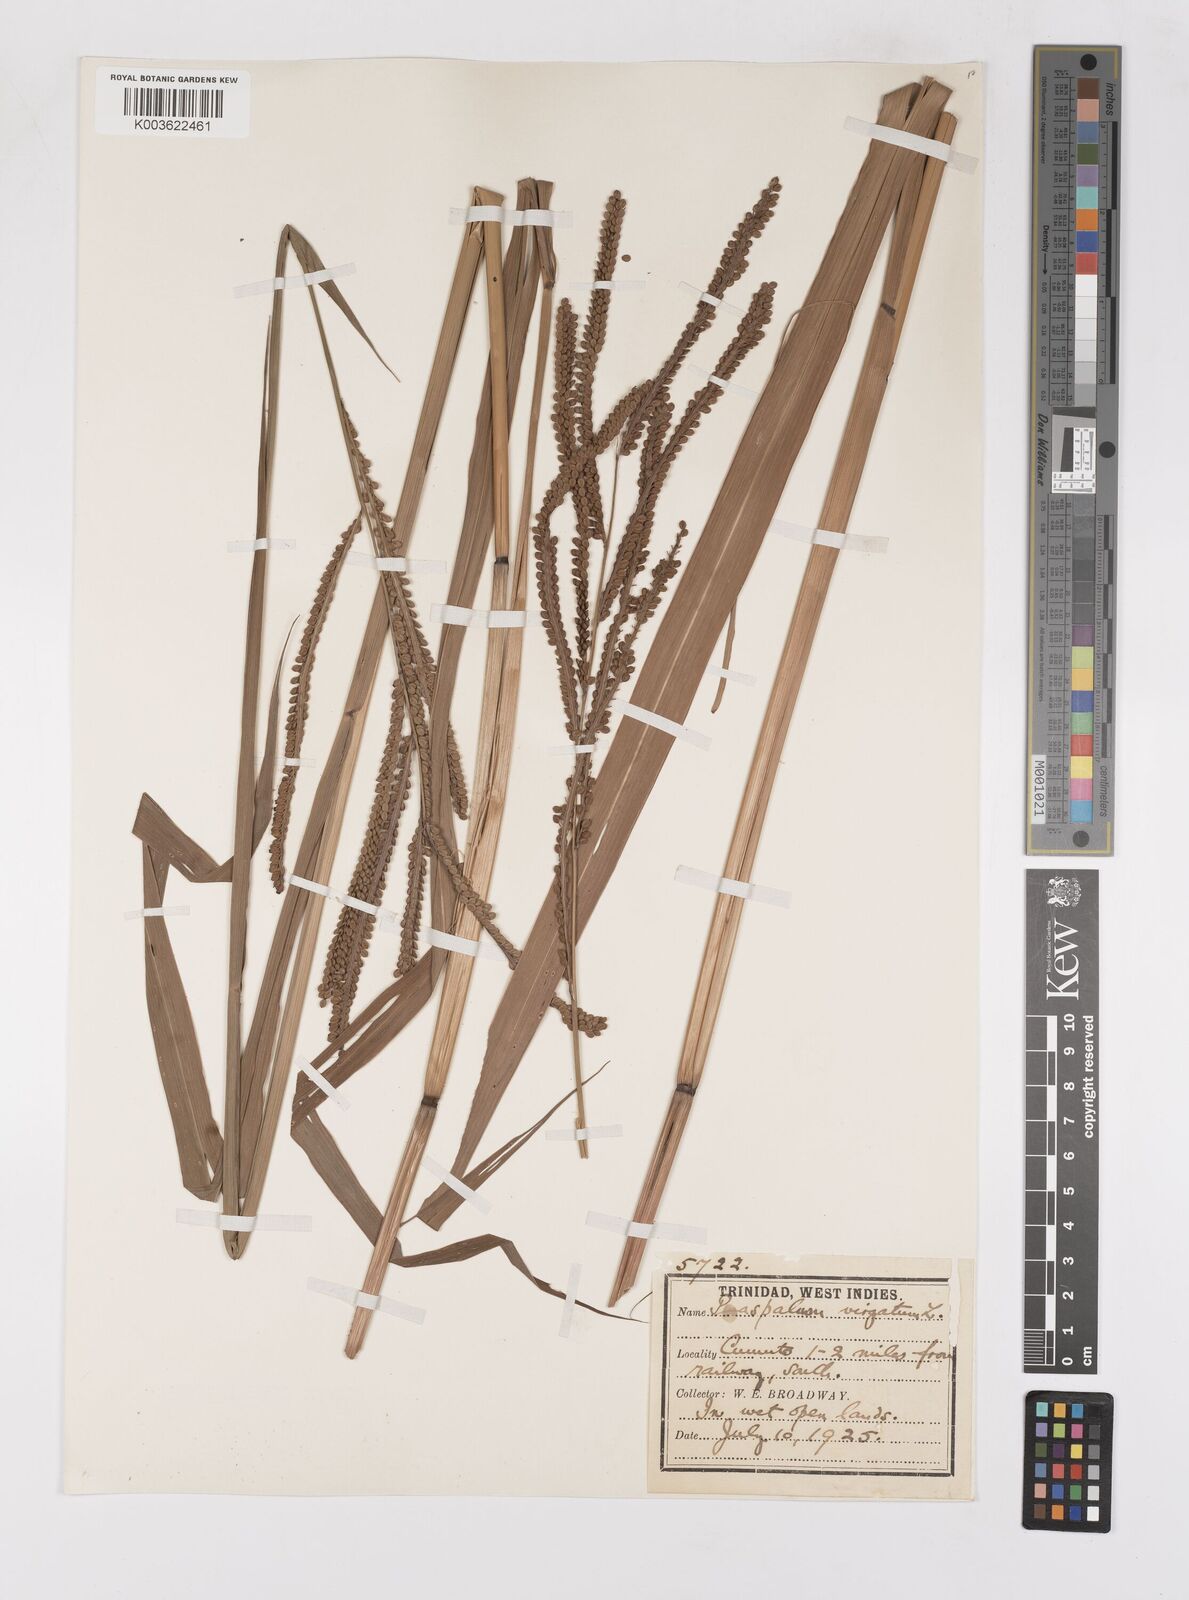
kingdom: Plantae
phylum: Tracheophyta
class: Liliopsida
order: Poales
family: Poaceae
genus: Paspalum
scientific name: Paspalum virgatum
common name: Talquezal
